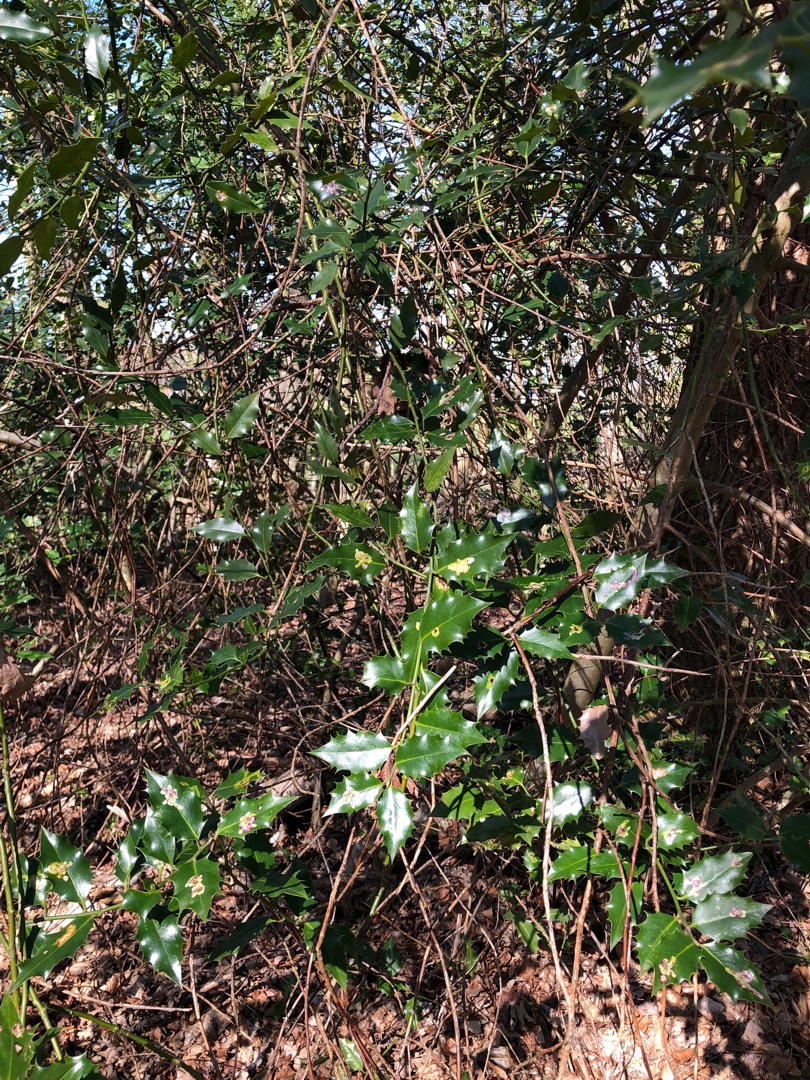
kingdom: Plantae
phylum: Tracheophyta
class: Magnoliopsida
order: Aquifoliales
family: Aquifoliaceae
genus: Ilex
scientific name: Ilex aquifolium
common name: Kristtorn
